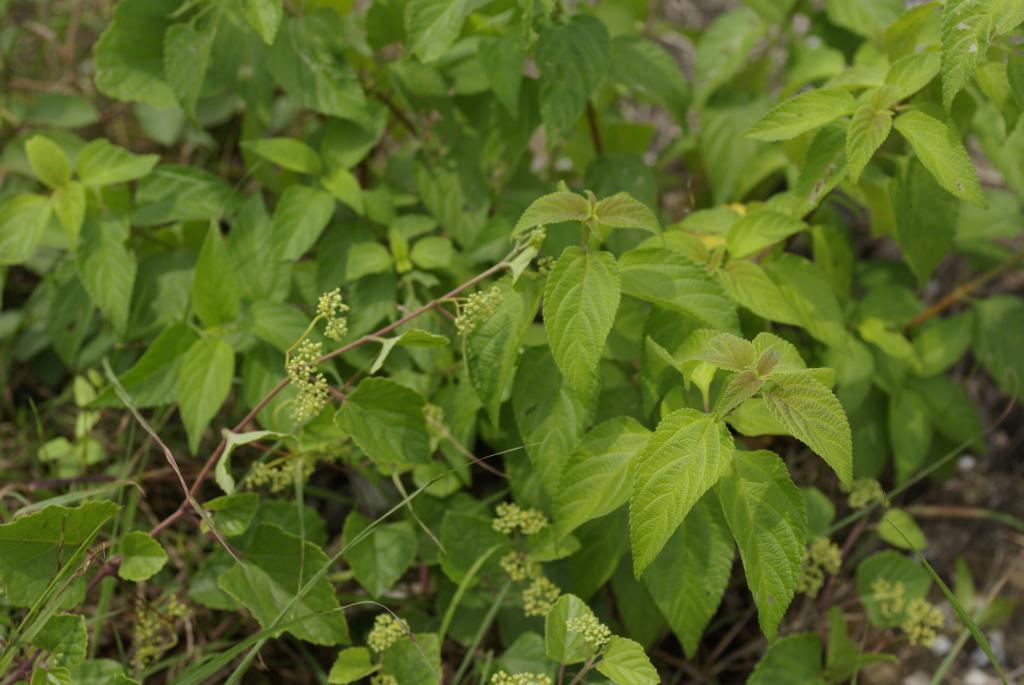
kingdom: Plantae
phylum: Tracheophyta
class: Magnoliopsida
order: Lamiales
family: Verbenaceae
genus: Lantana
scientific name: Lantana camara
